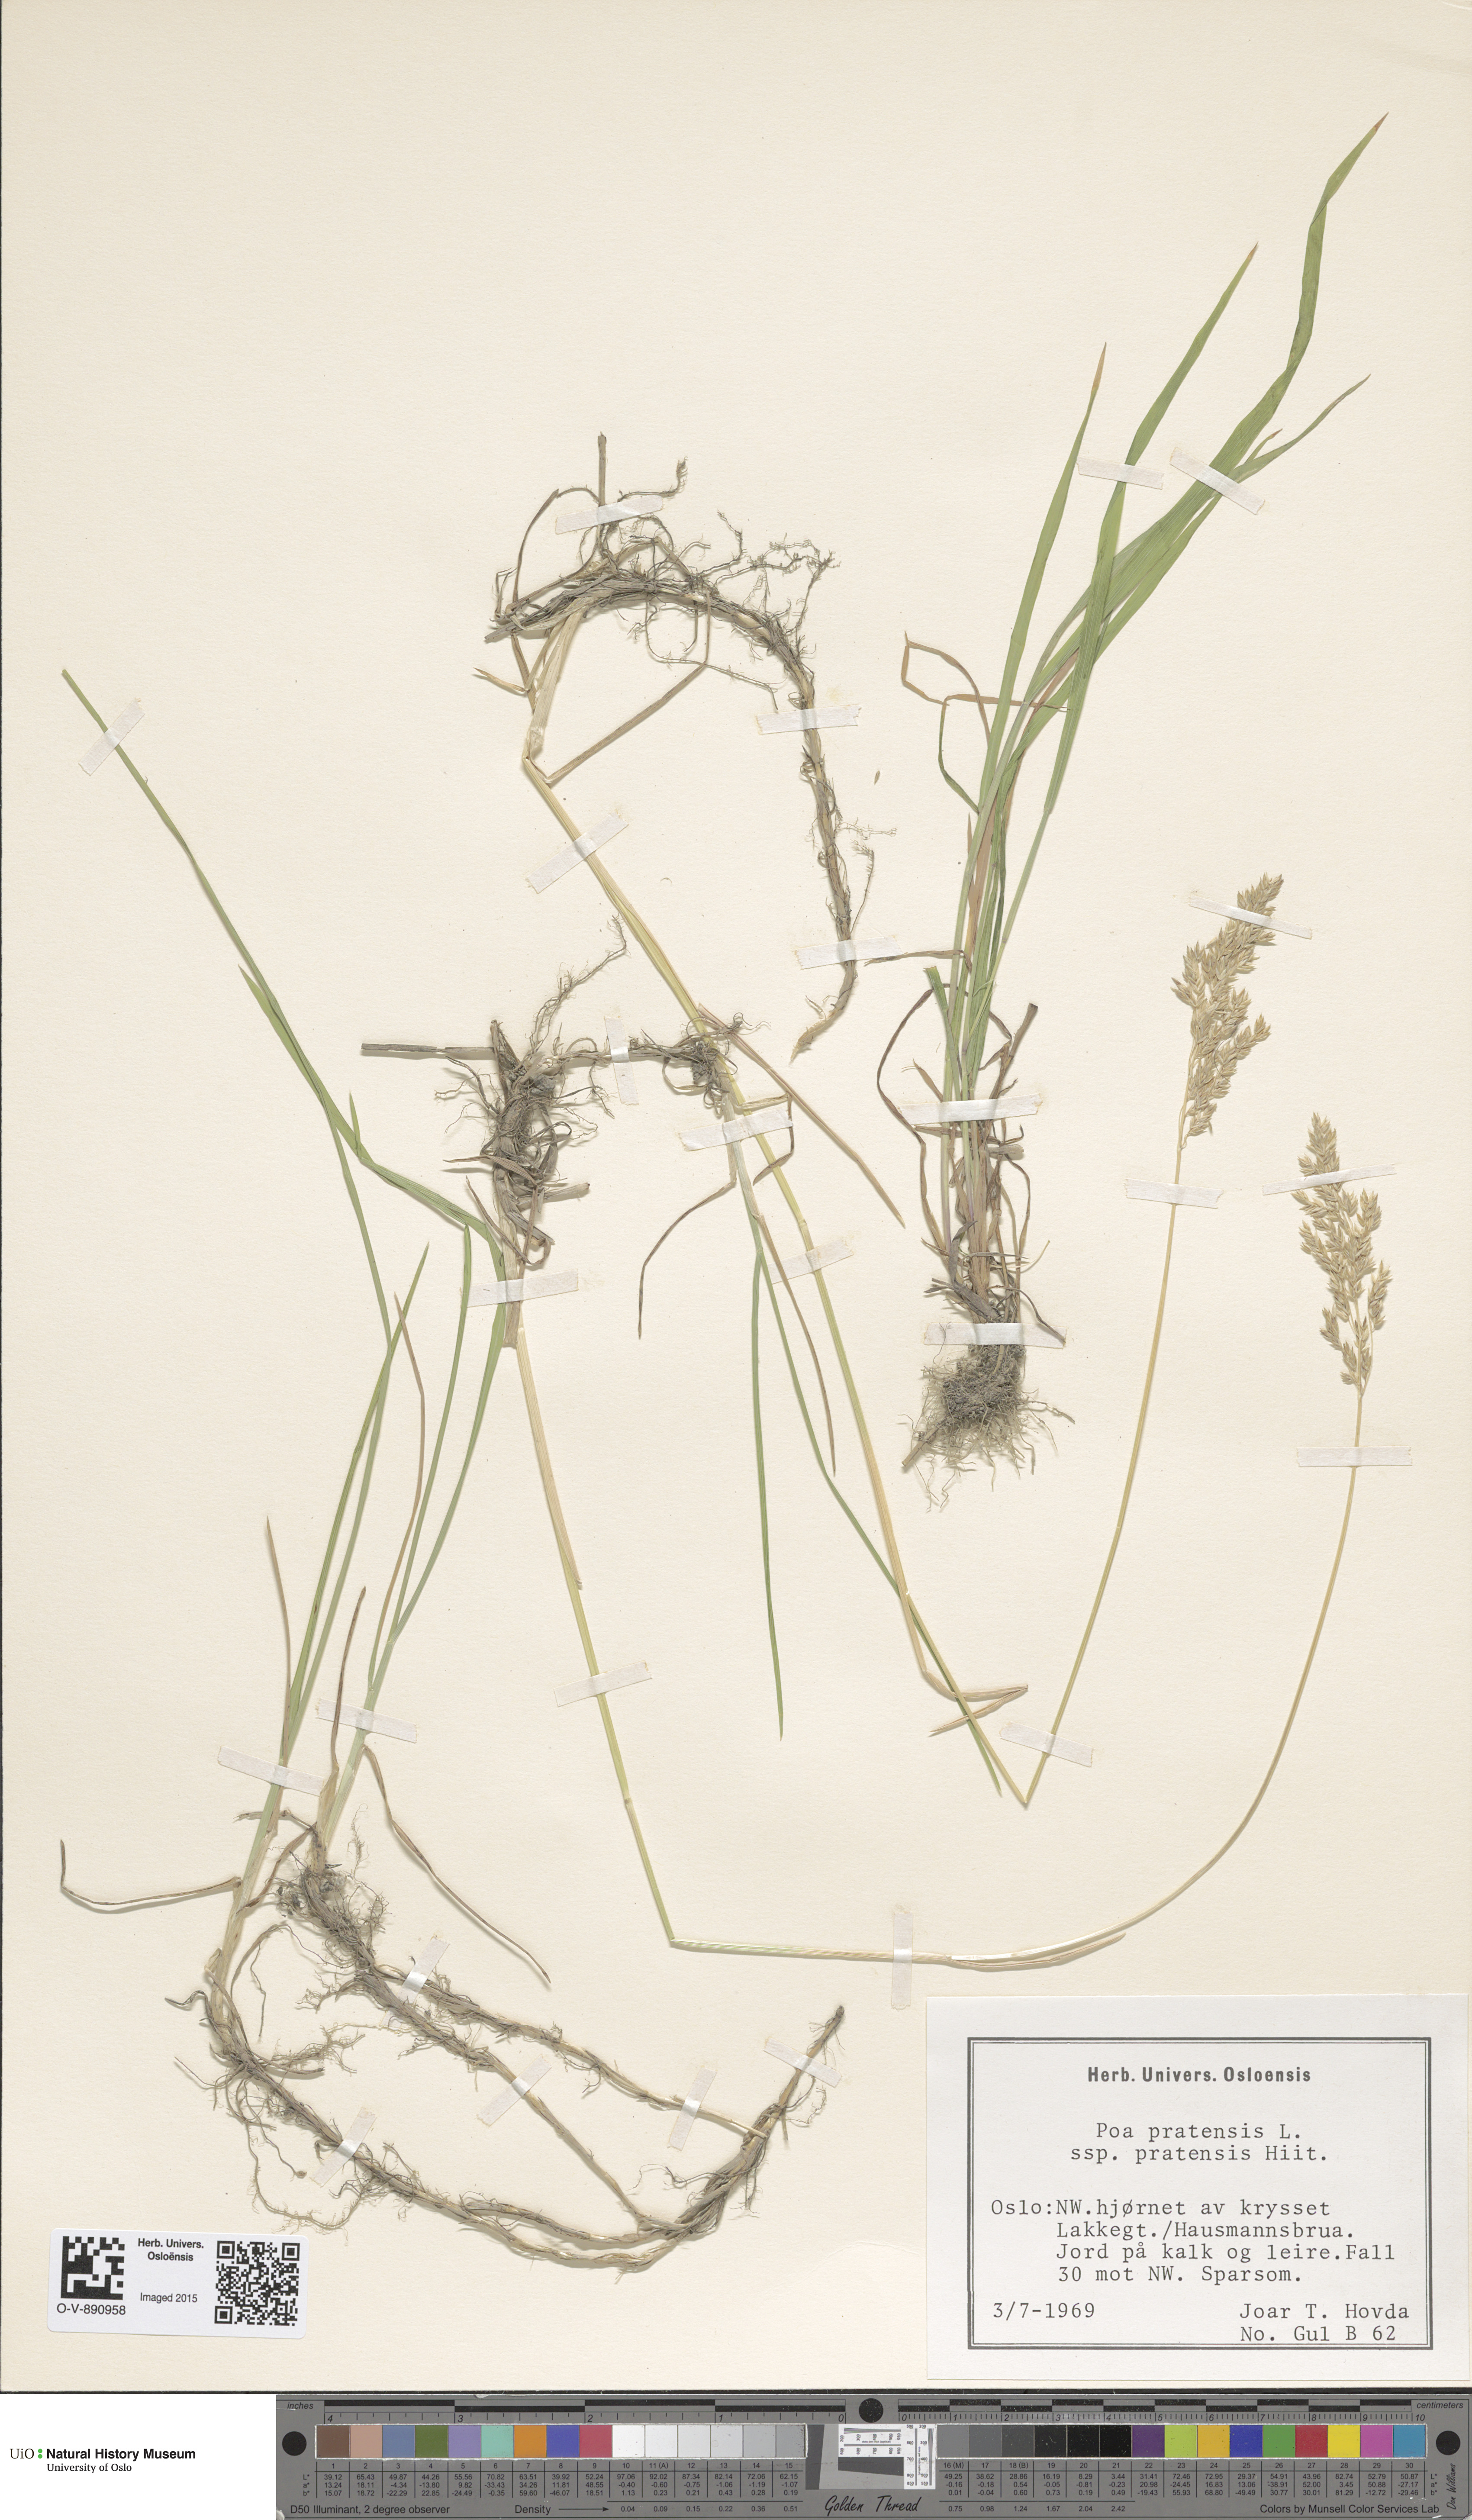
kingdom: Plantae
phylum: Tracheophyta
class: Liliopsida
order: Poales
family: Poaceae
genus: Poa
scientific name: Poa pratensis
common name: Kentucky bluegrass
